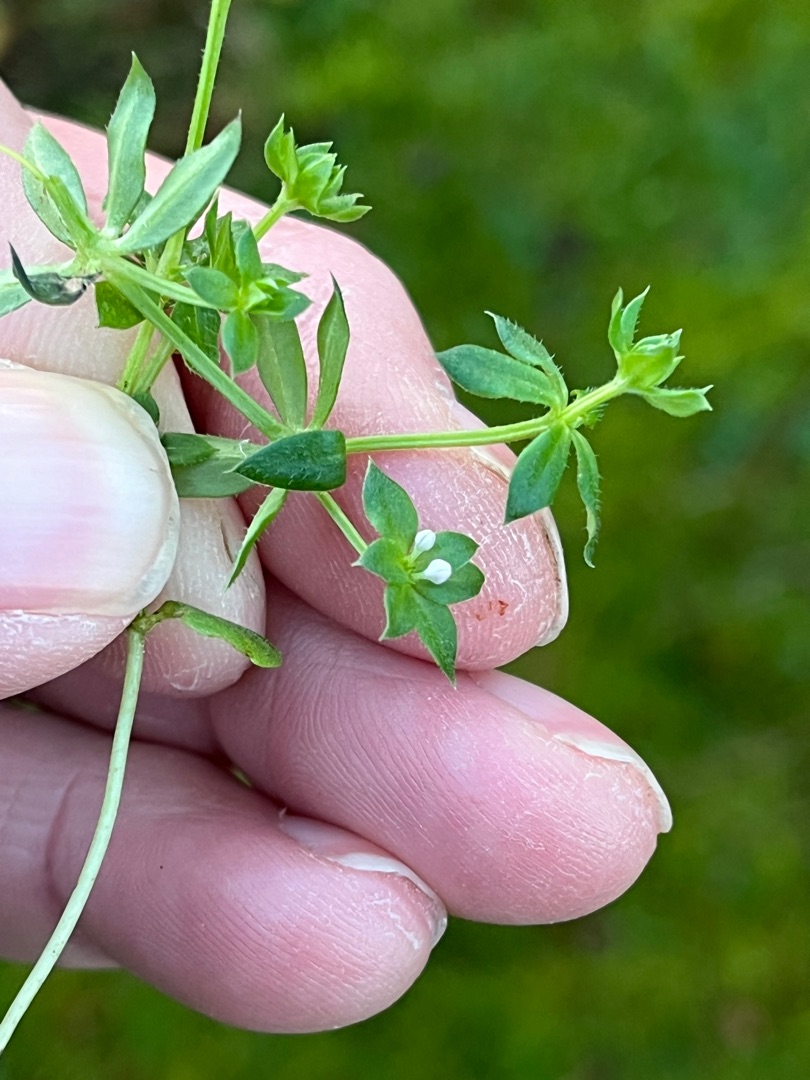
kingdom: Plantae
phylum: Tracheophyta
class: Magnoliopsida
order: Gentianales
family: Rubiaceae
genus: Sherardia
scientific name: Sherardia arvensis
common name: Blåstjerne
